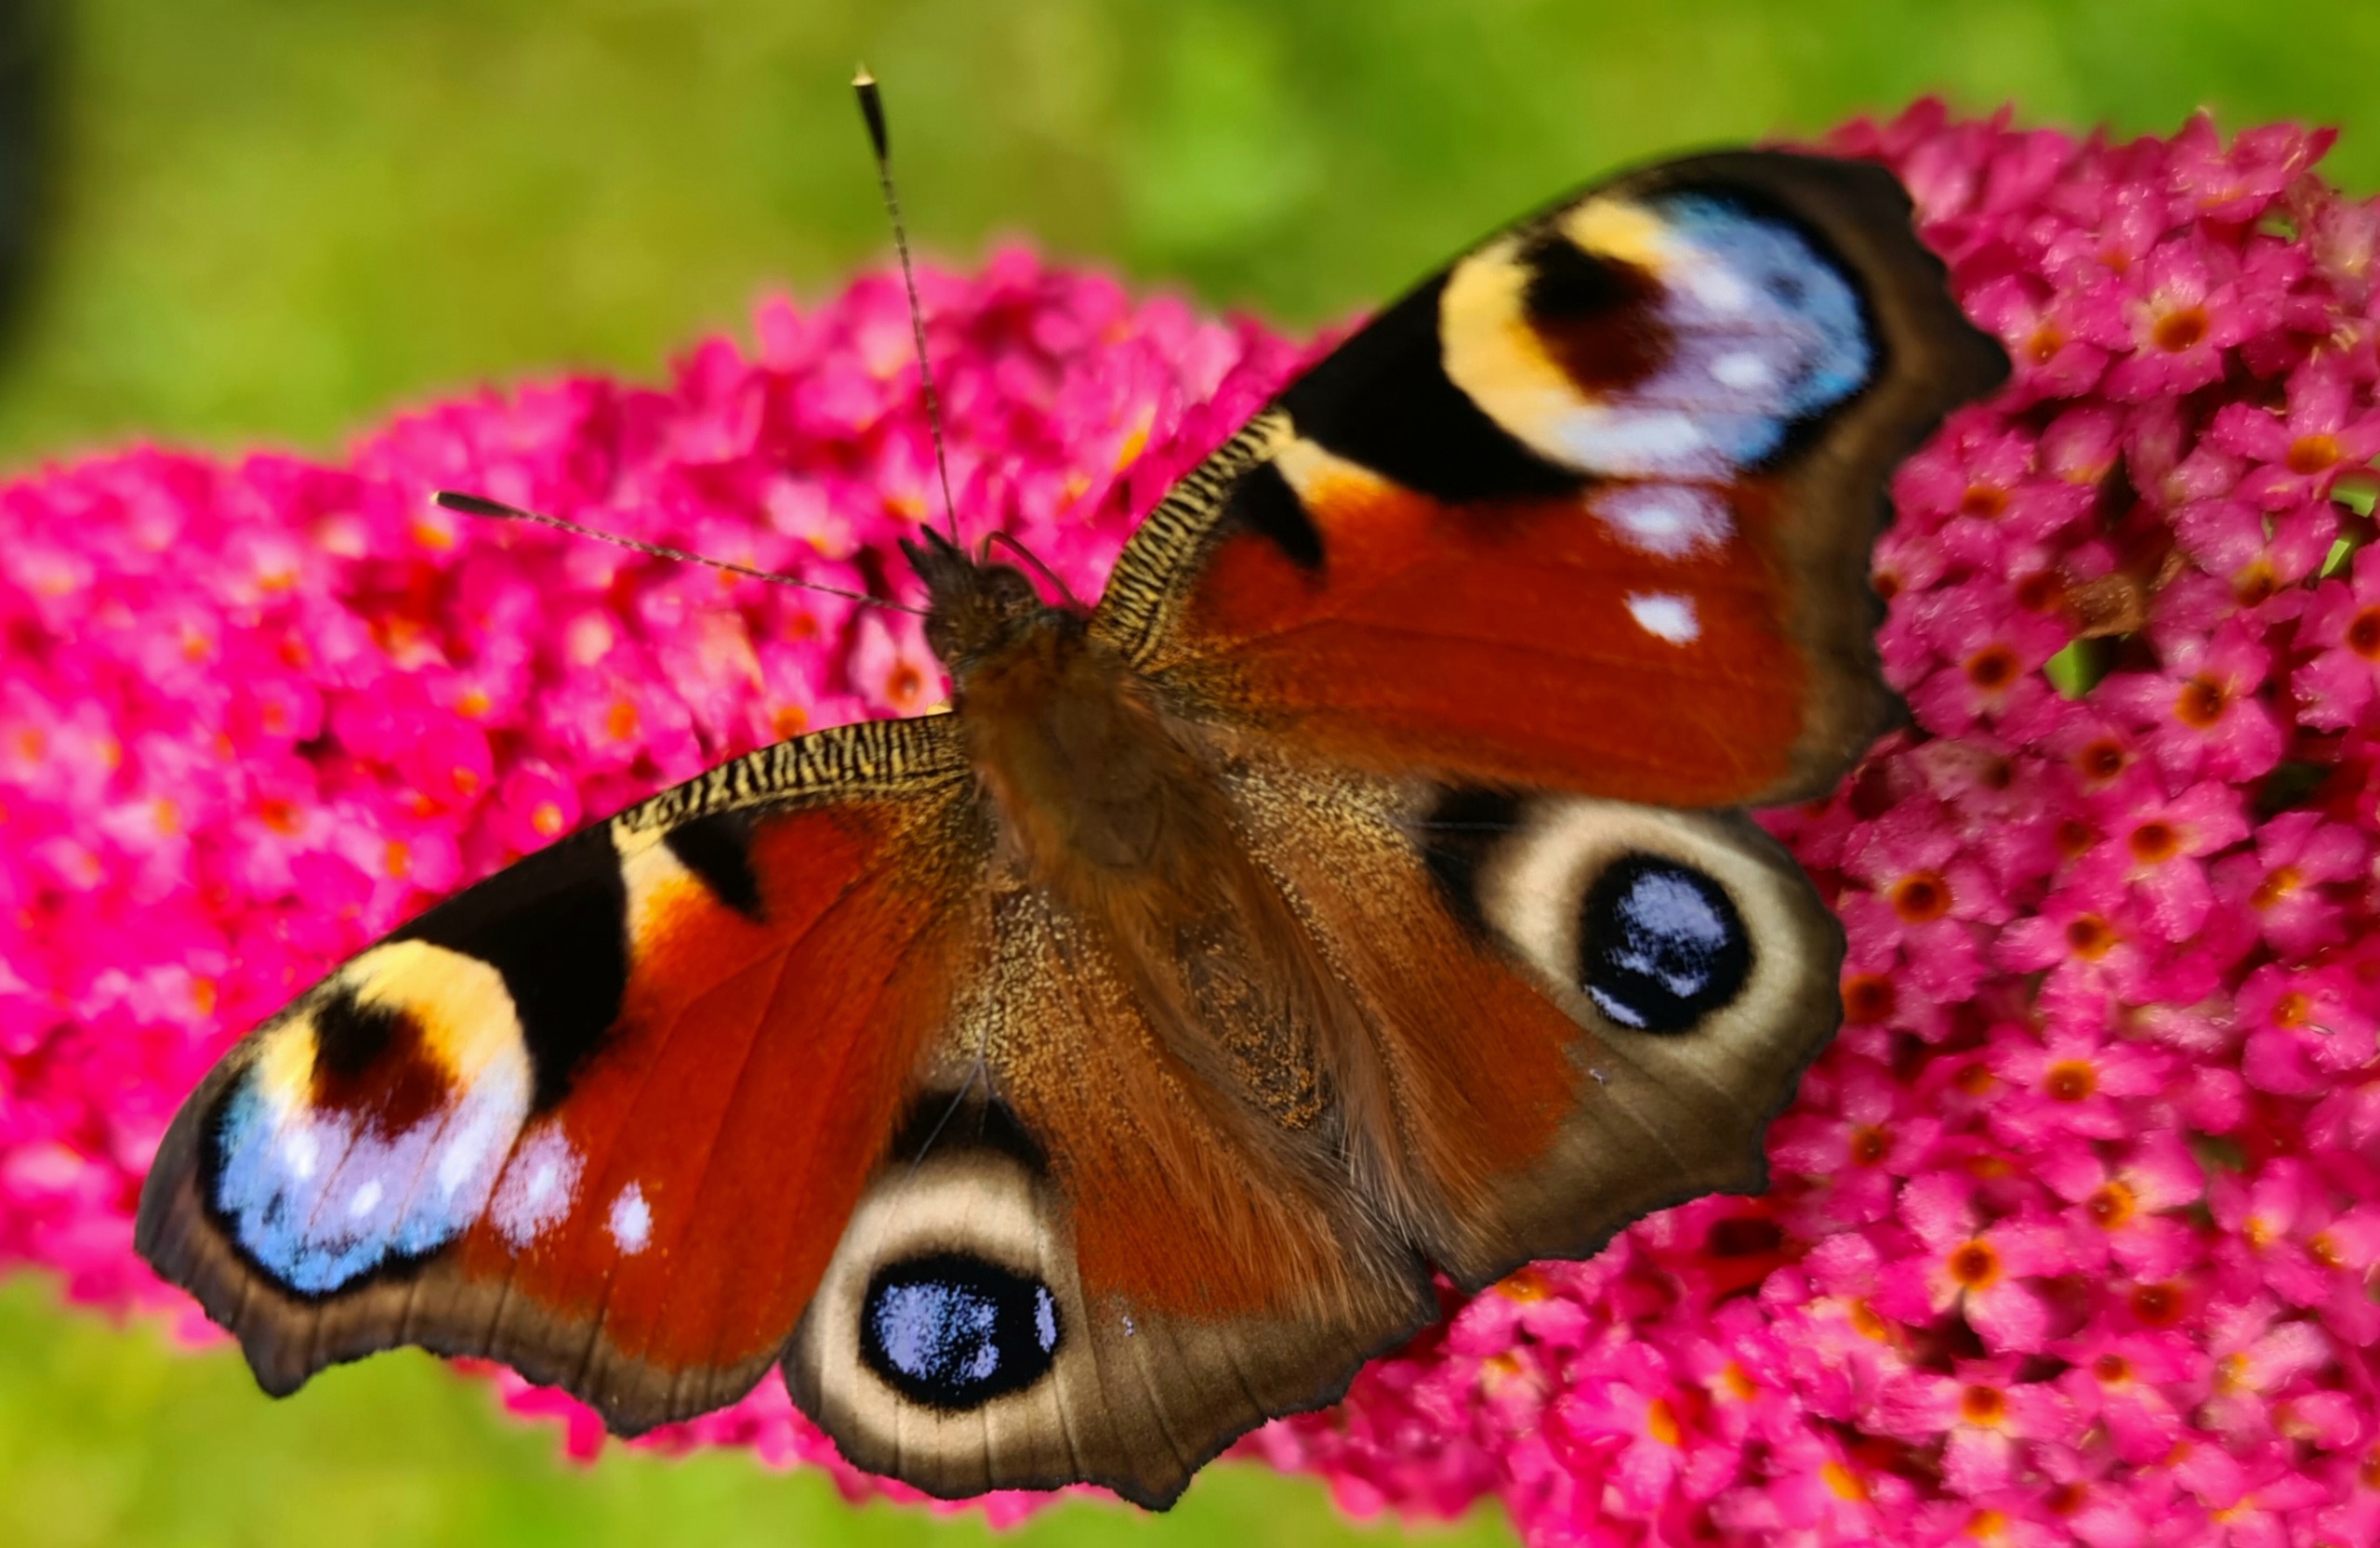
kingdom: Animalia
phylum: Arthropoda
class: Insecta
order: Lepidoptera
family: Nymphalidae
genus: Aglais
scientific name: Aglais io
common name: Dagpåfugleøje
